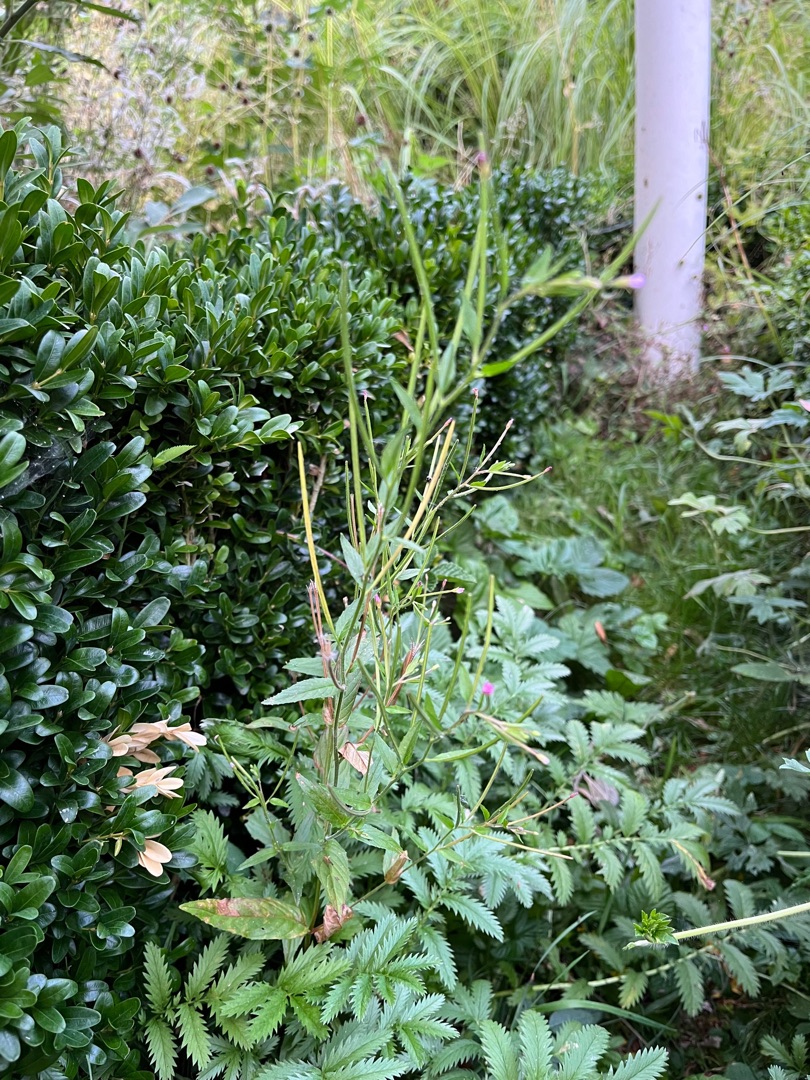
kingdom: Plantae
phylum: Tracheophyta
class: Magnoliopsida
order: Myrtales
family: Onagraceae
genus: Epilobium
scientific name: Epilobium ciliatum
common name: Kirtlet dueurt
